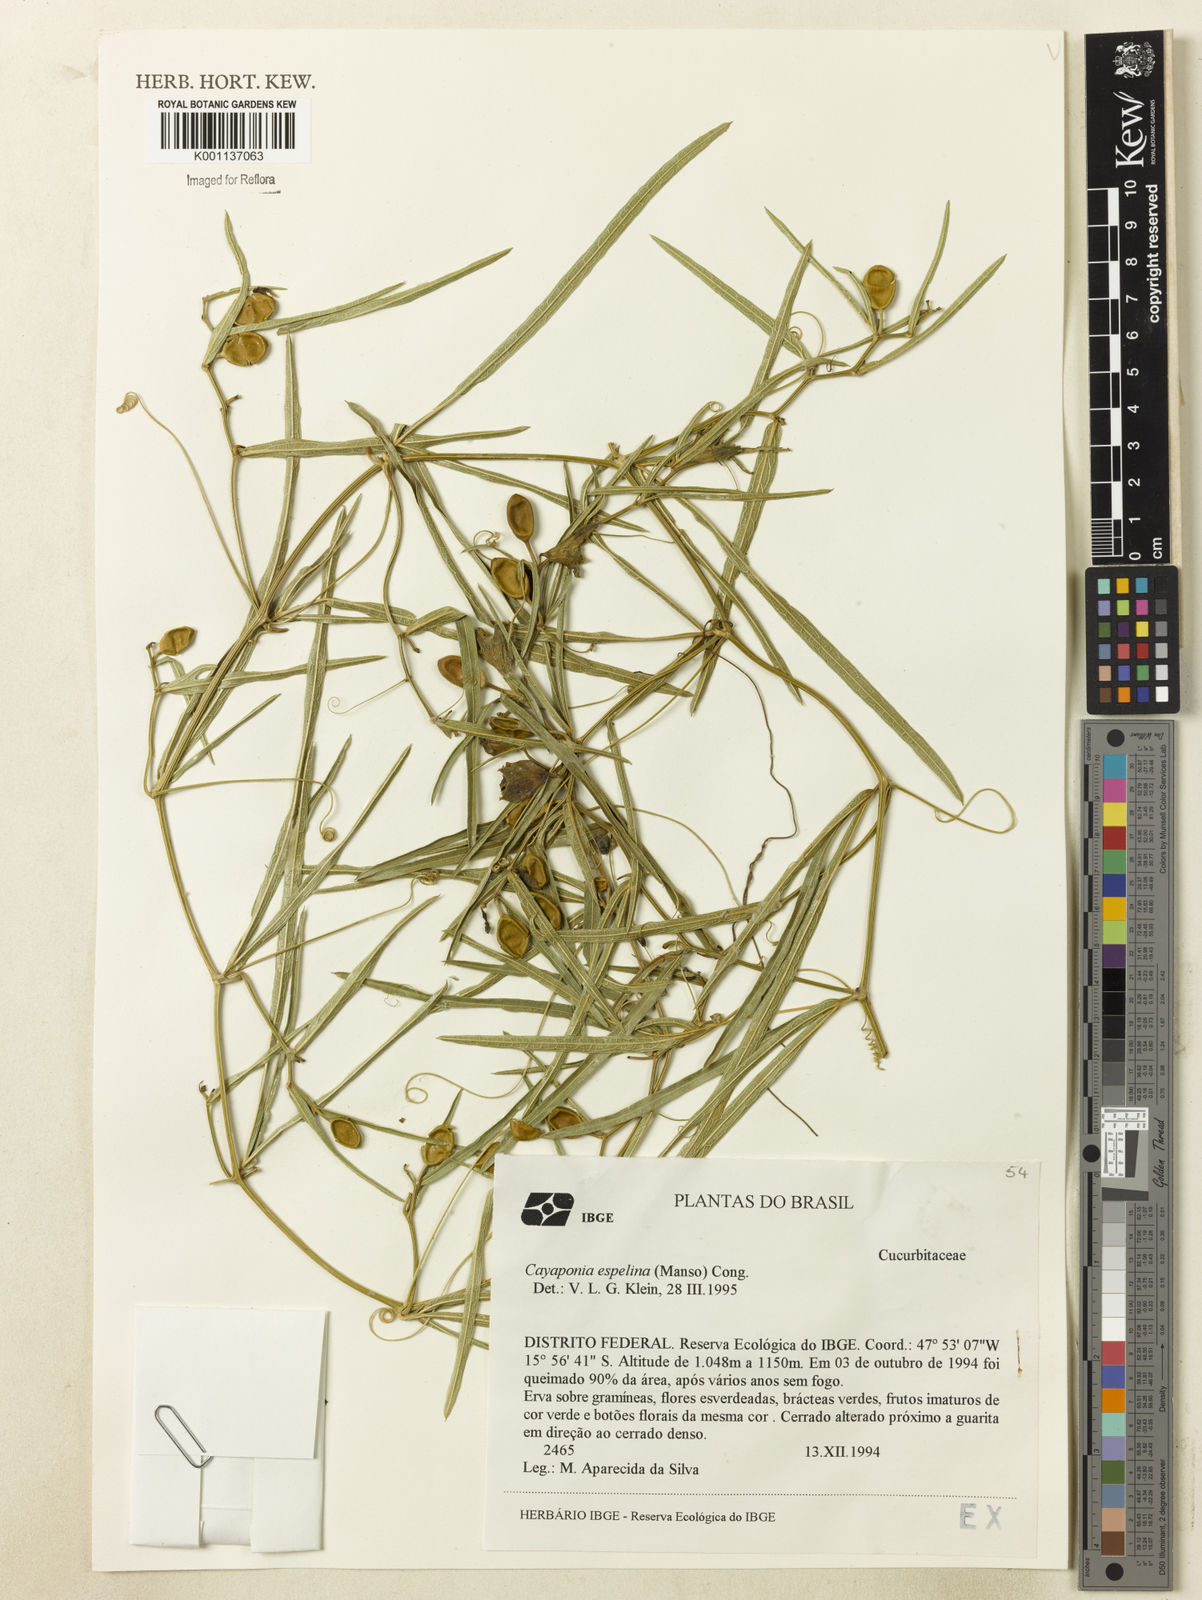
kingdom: Plantae
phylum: Tracheophyta
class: Magnoliopsida
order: Cucurbitales
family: Cucurbitaceae
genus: Cayaponia
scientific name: Cayaponia espelina
